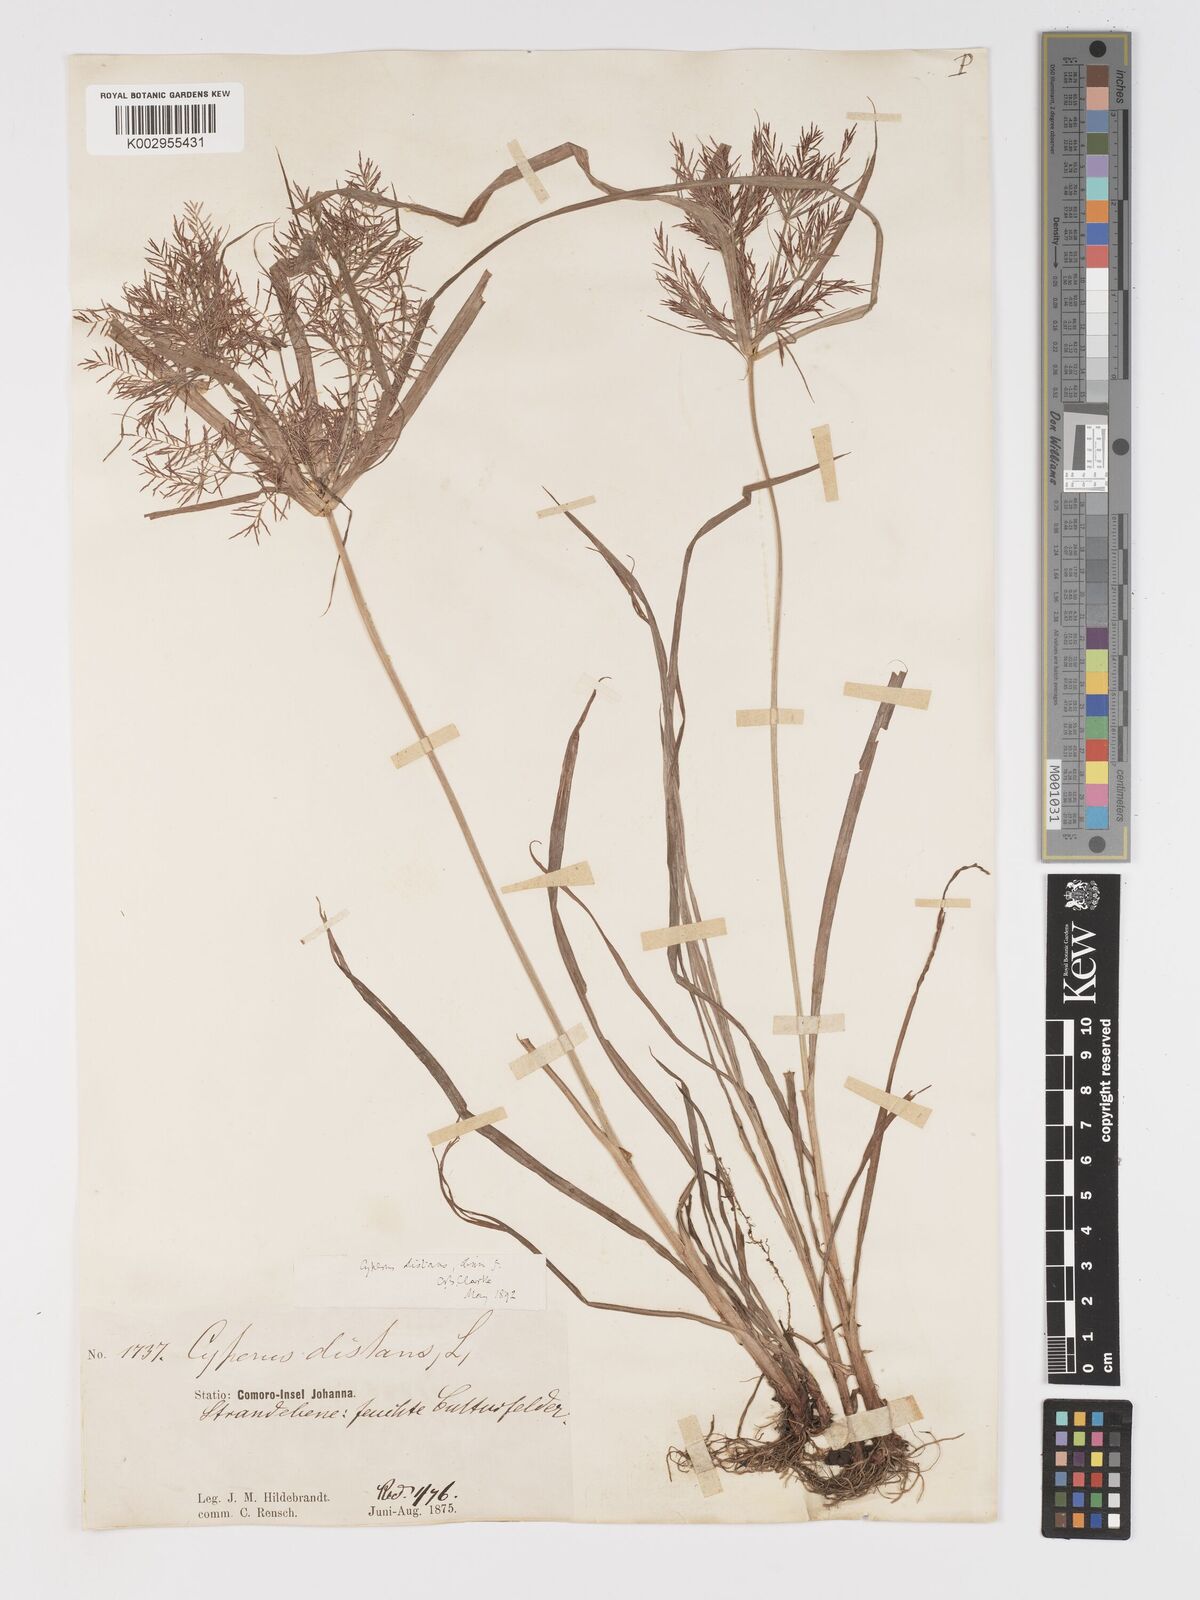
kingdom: Plantae
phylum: Tracheophyta
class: Liliopsida
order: Poales
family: Cyperaceae
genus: Cyperus
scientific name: Cyperus distans
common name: Slender cyperus
